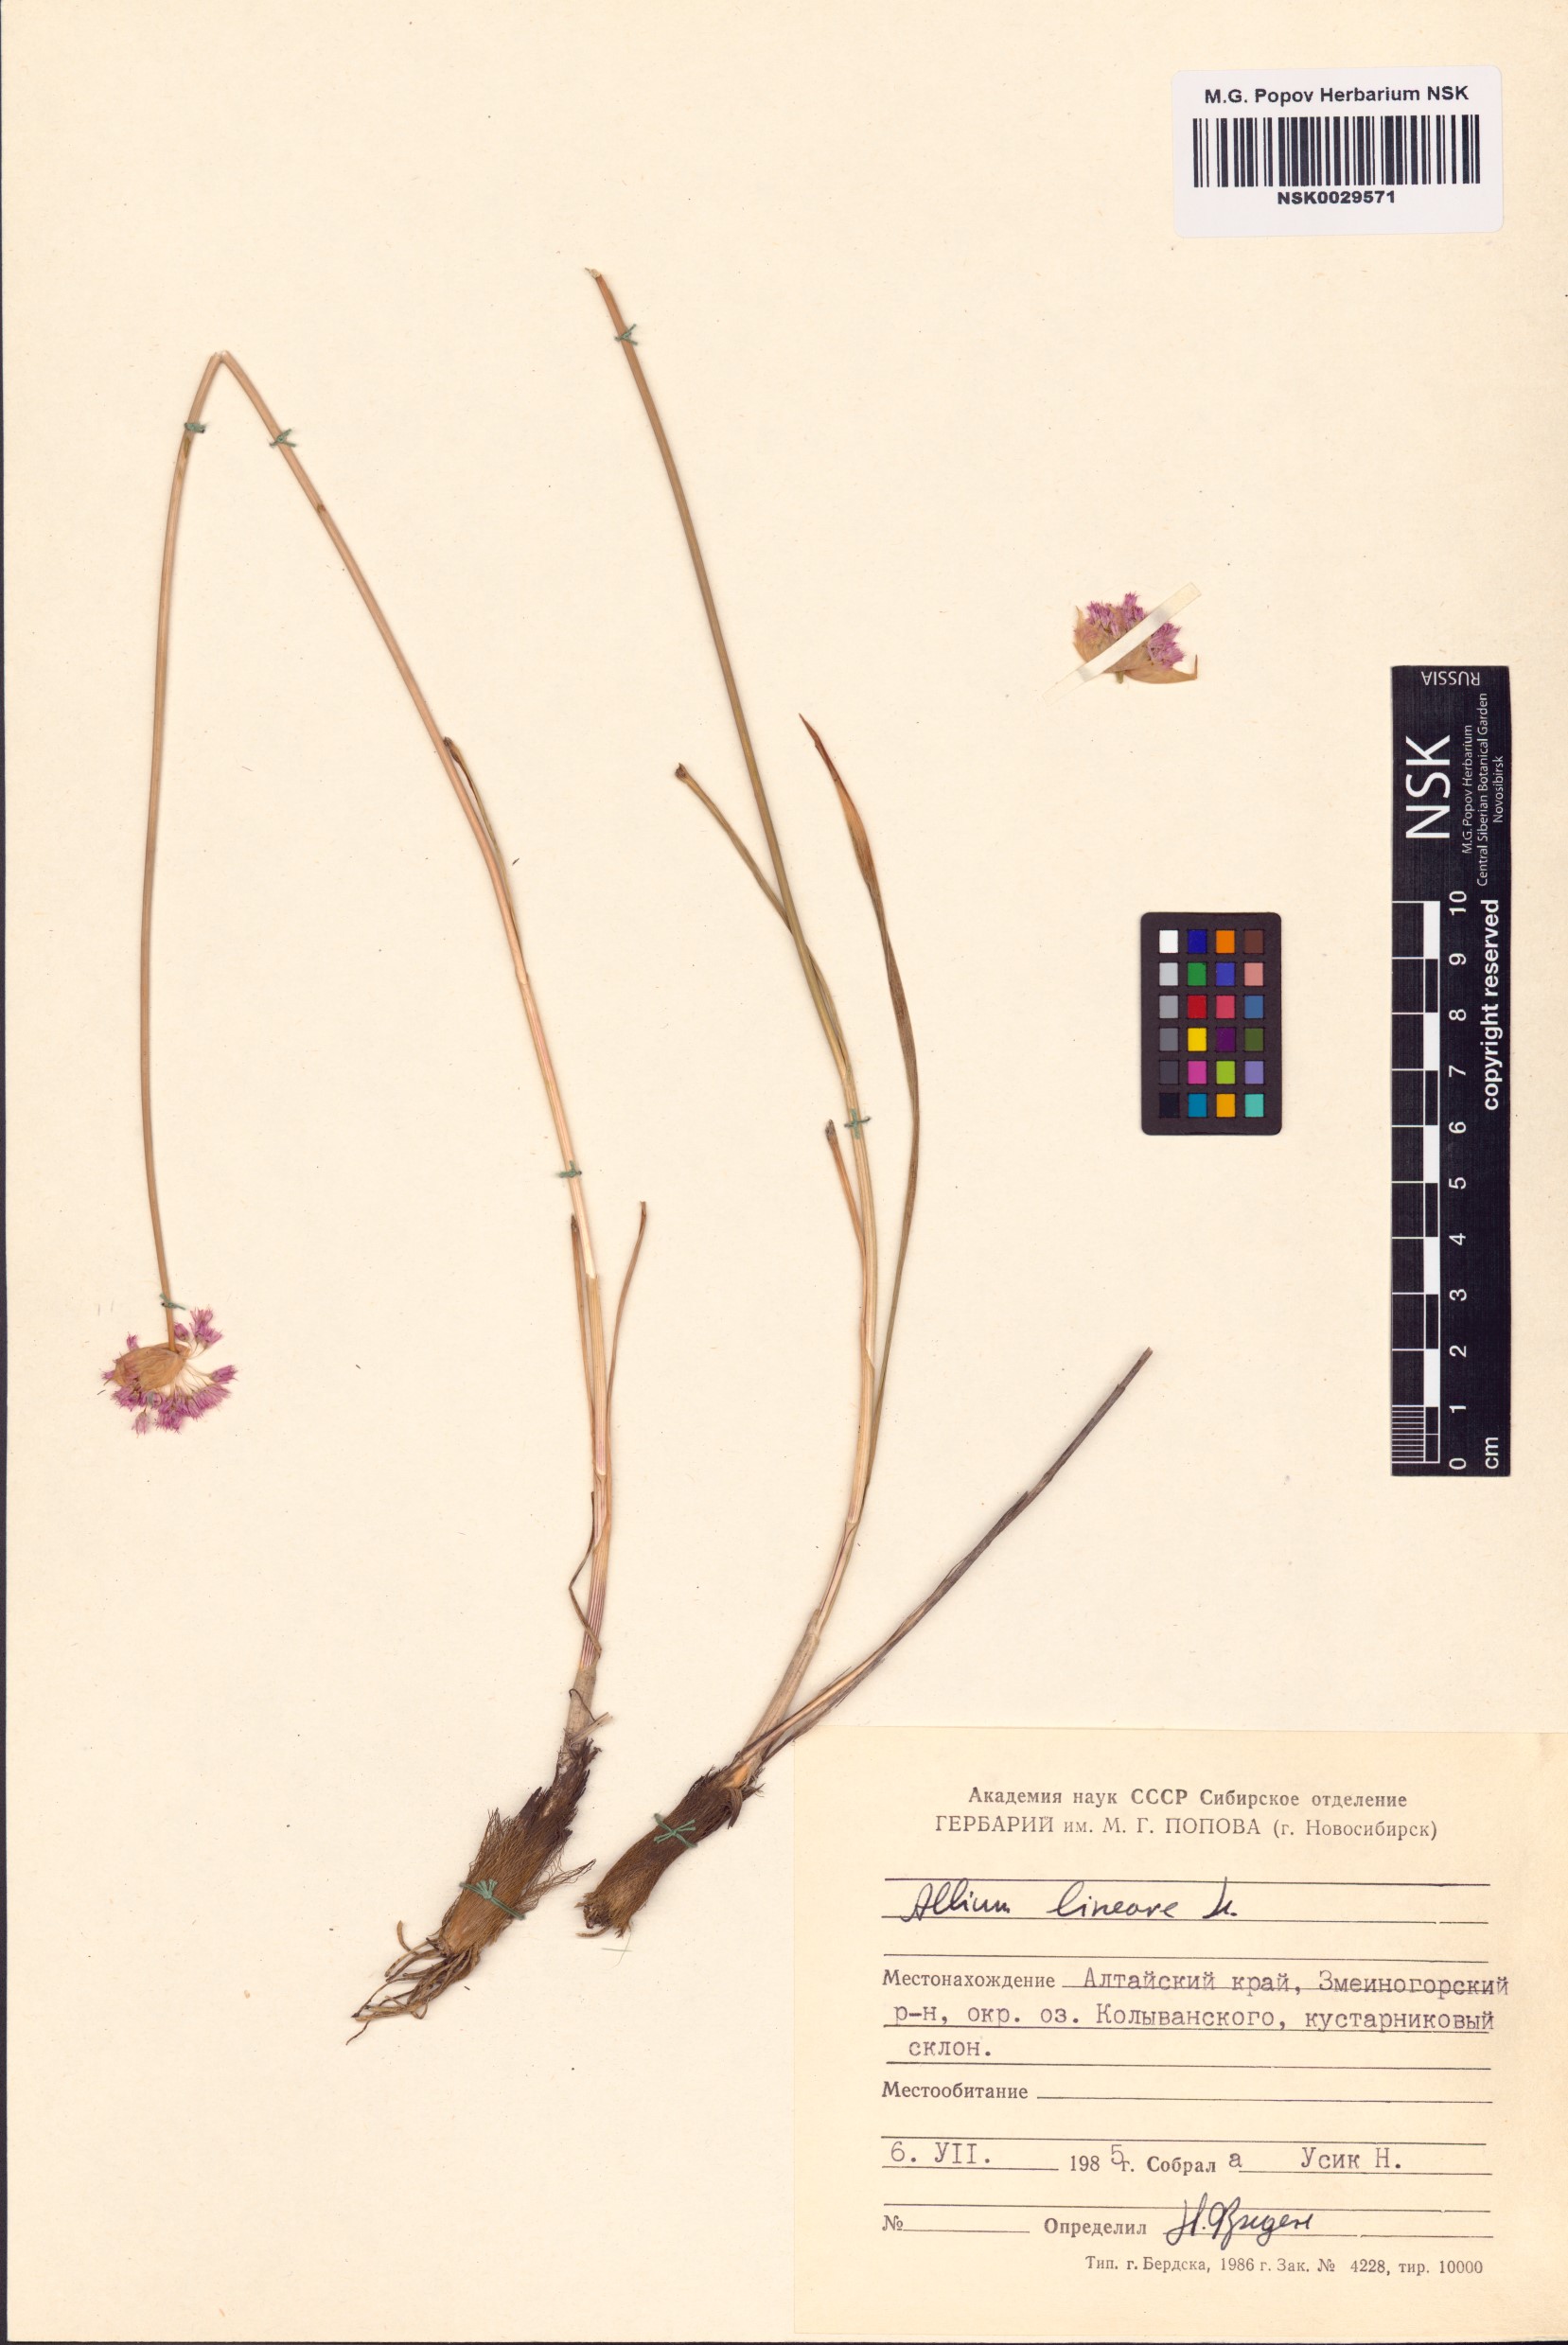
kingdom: Plantae
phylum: Tracheophyta
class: Liliopsida
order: Asparagales
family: Amaryllidaceae
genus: Allium
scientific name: Allium lineare
